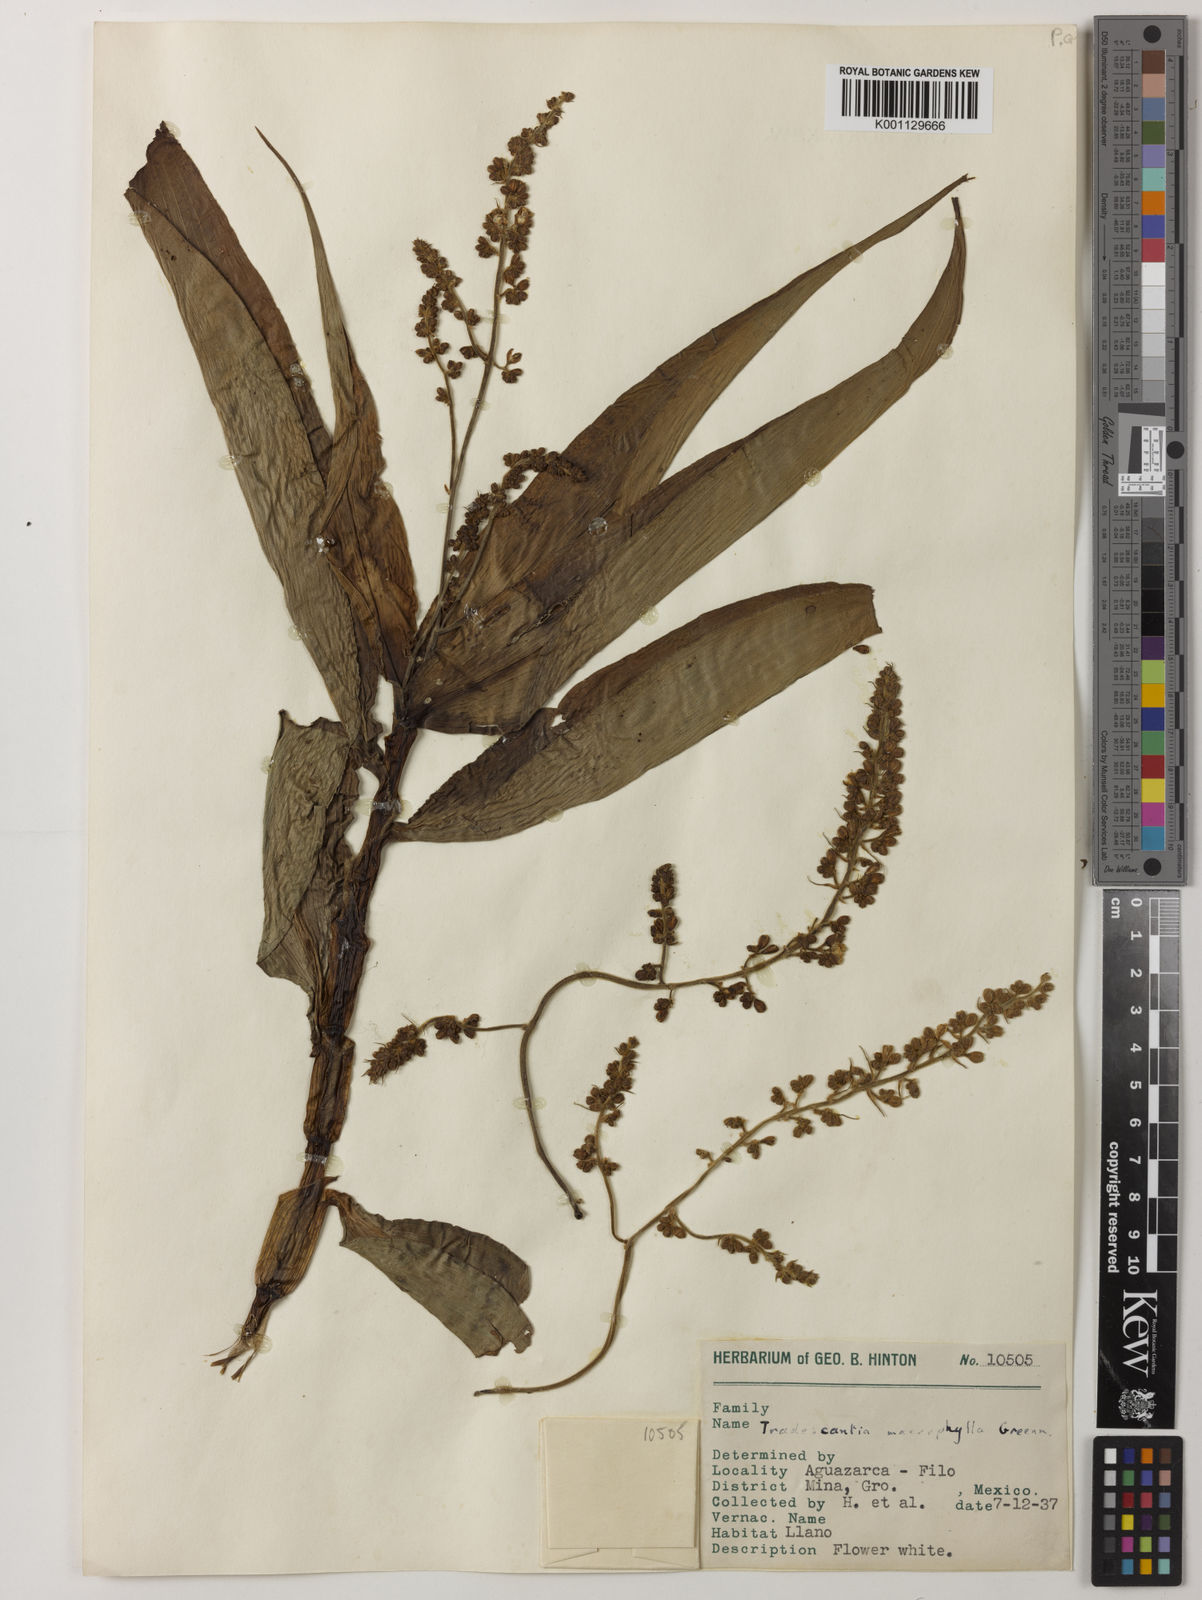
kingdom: Plantae
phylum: Tracheophyta
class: Liliopsida
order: Commelinales
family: Commelinaceae
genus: Thyrsanthemum
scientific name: Thyrsanthemum longifolium
